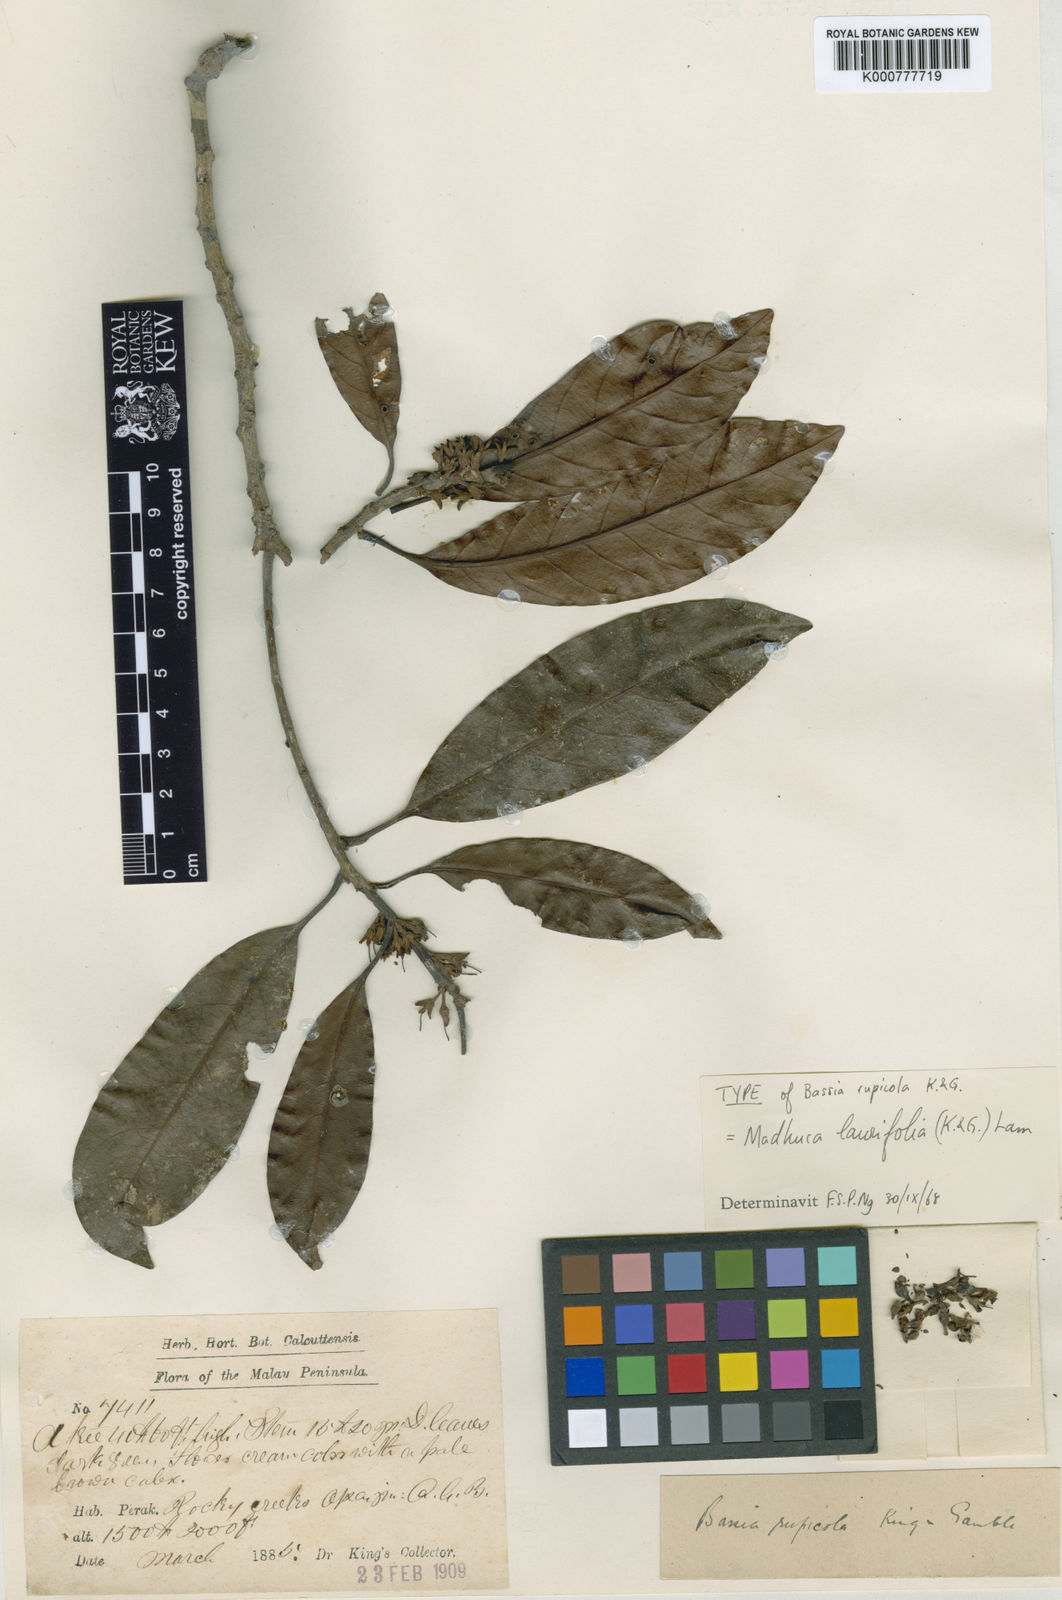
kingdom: Plantae
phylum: Tracheophyta
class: Magnoliopsida
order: Ericales
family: Sapotaceae
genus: Madhuca
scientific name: Madhuca laurifolia
